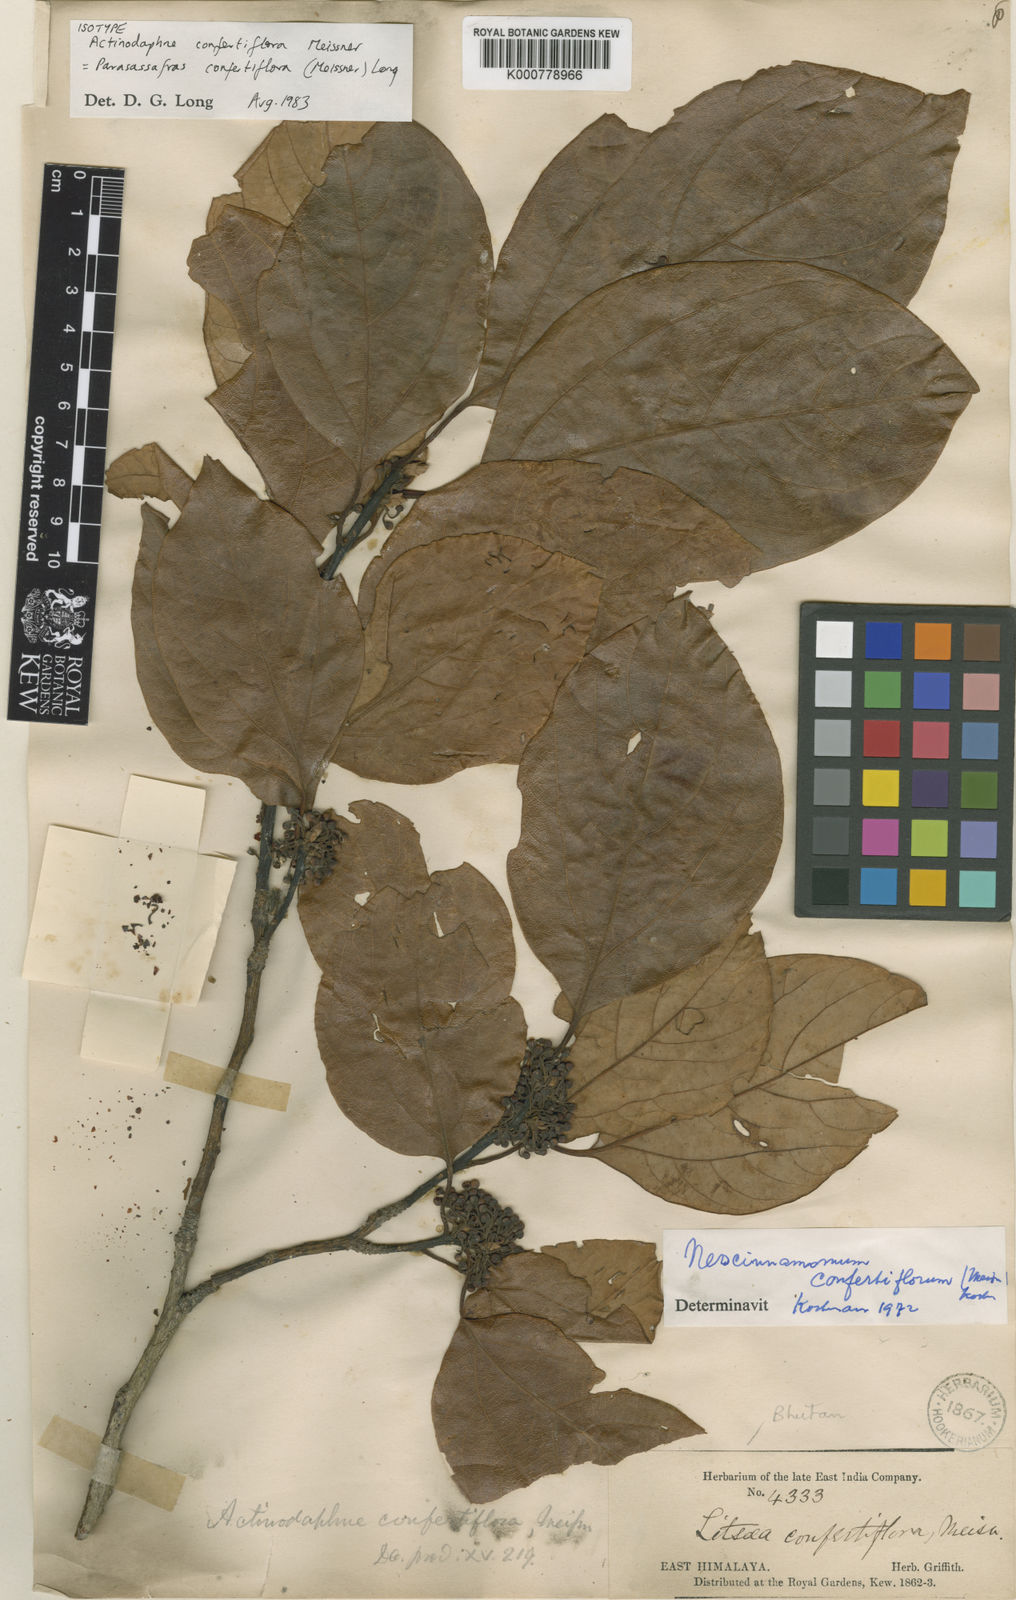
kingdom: Plantae
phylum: Tracheophyta
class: Magnoliopsida
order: Laurales
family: Lauraceae
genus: Parasassafras
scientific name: Parasassafras confertiflora
